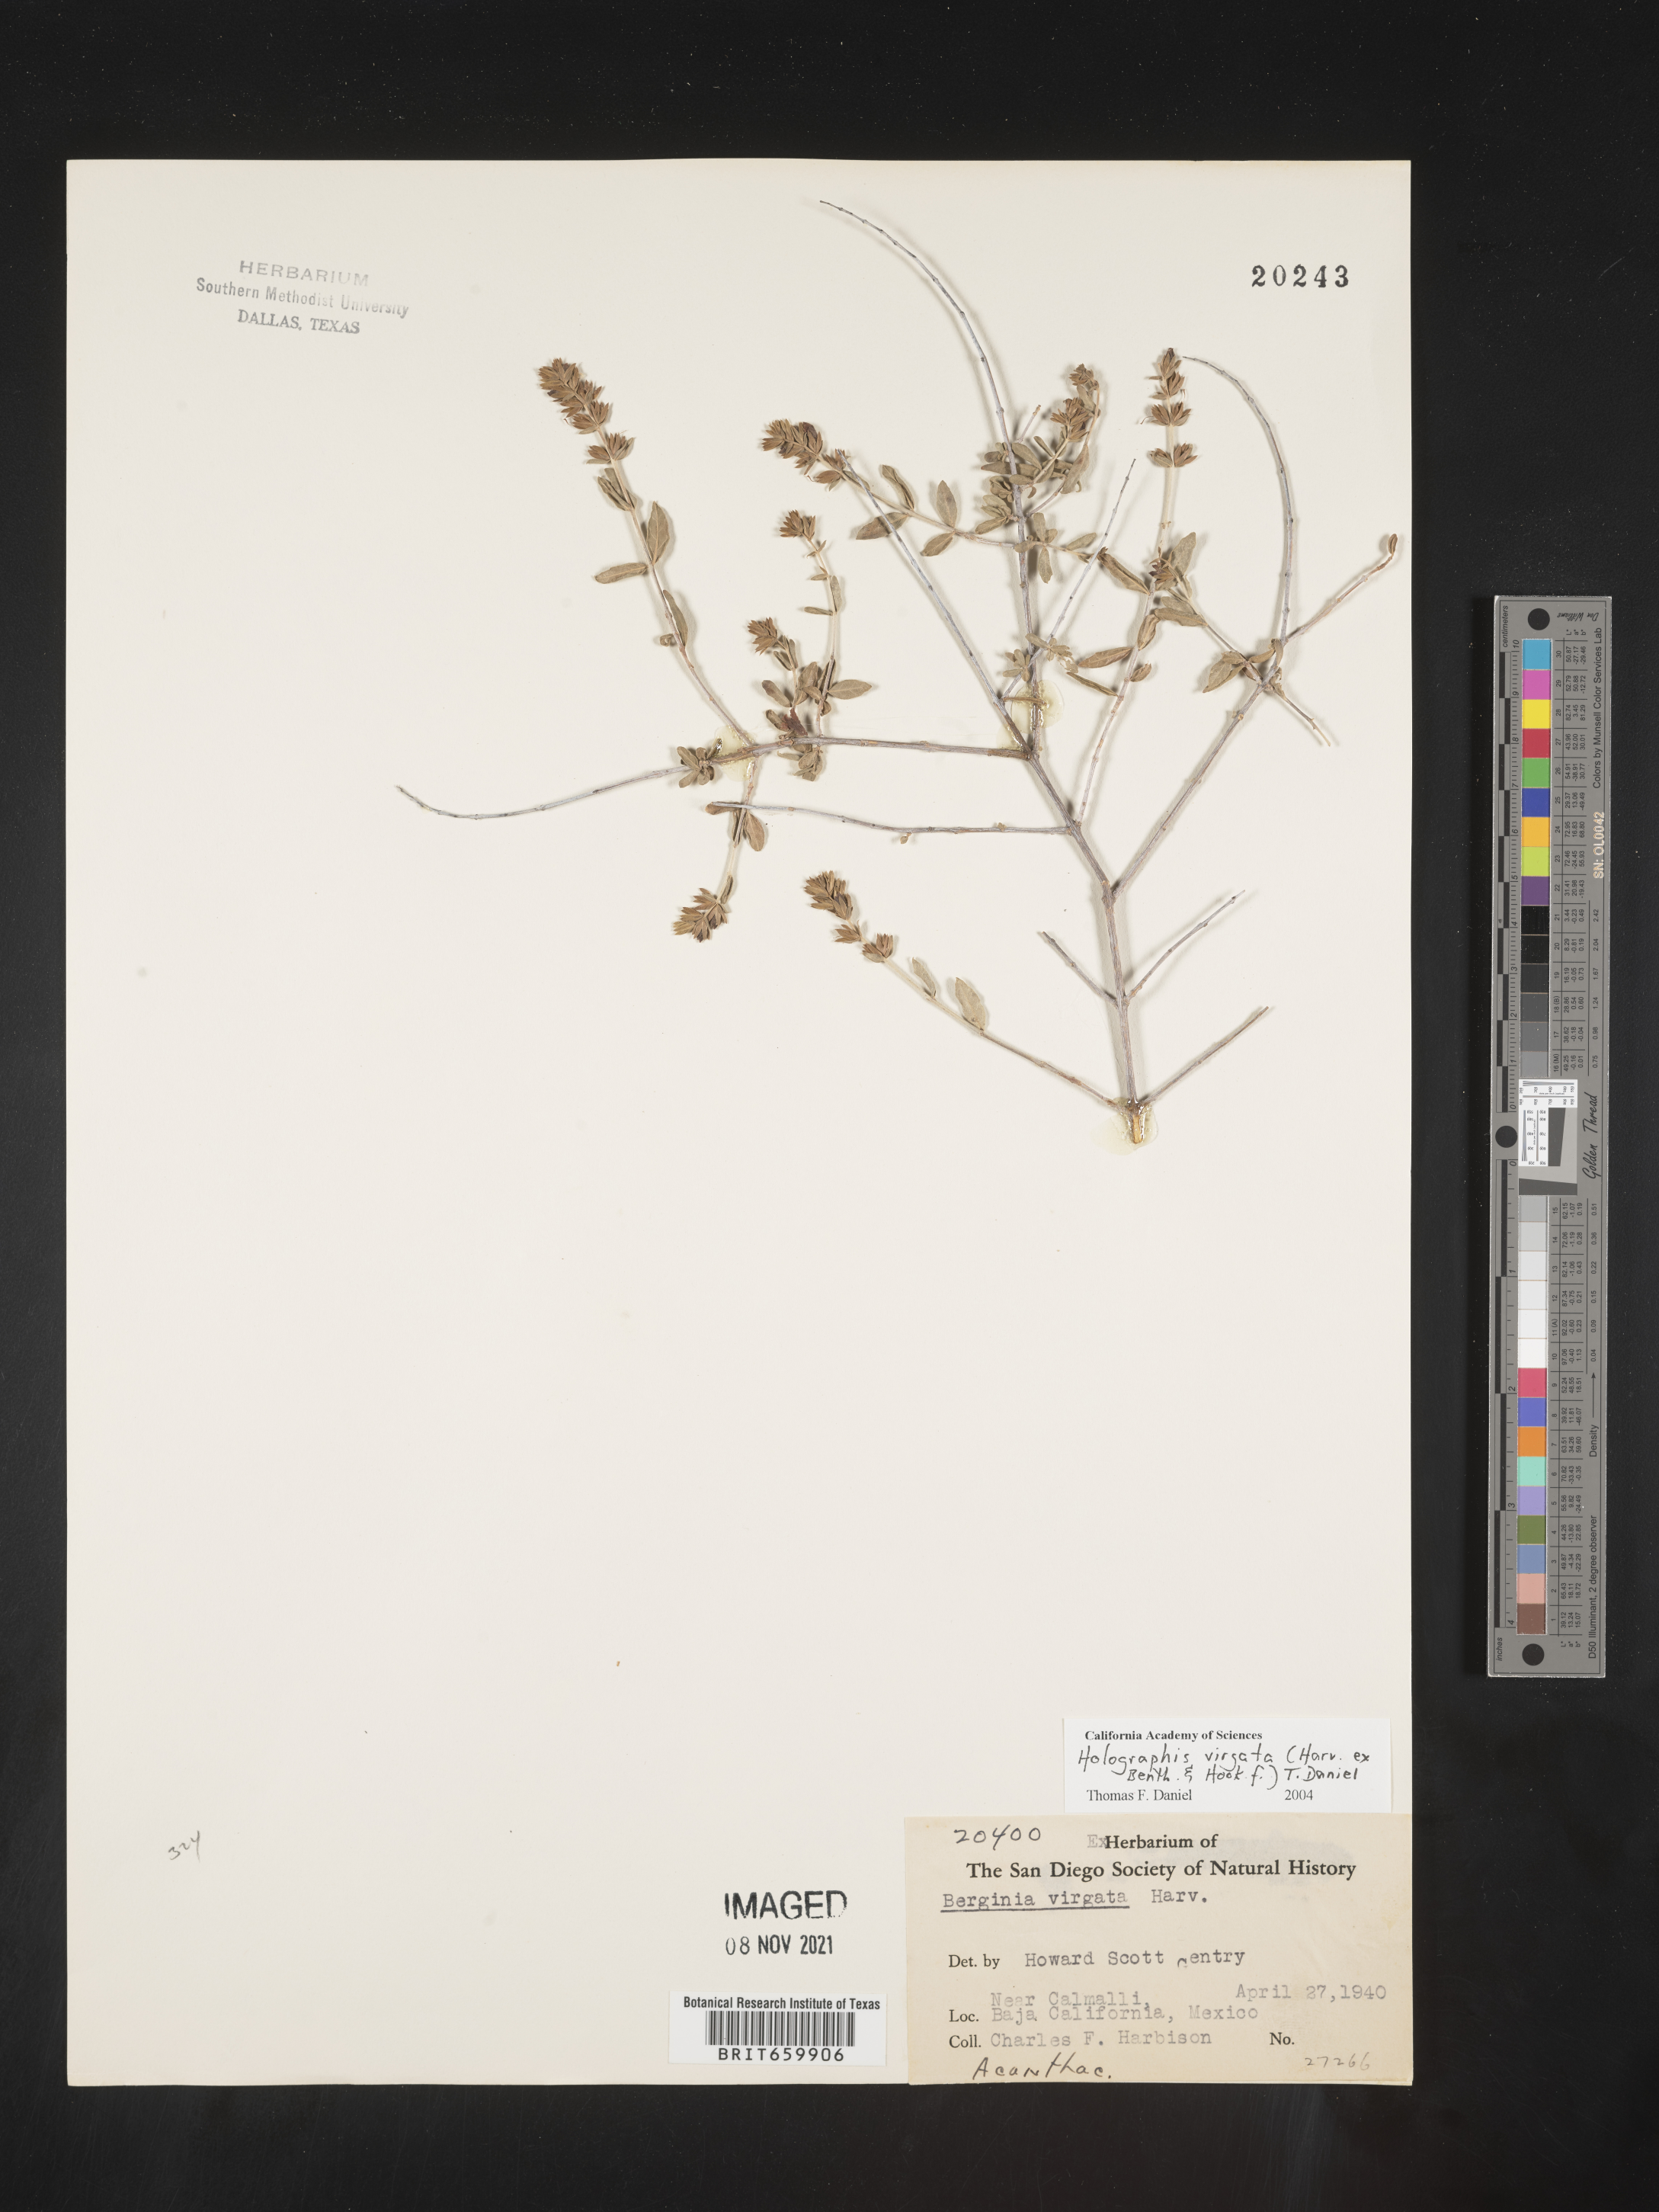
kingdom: Plantae
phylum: Tracheophyta
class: Magnoliopsida
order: Lamiales
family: Acanthaceae
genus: Holographis
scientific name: Holographis
